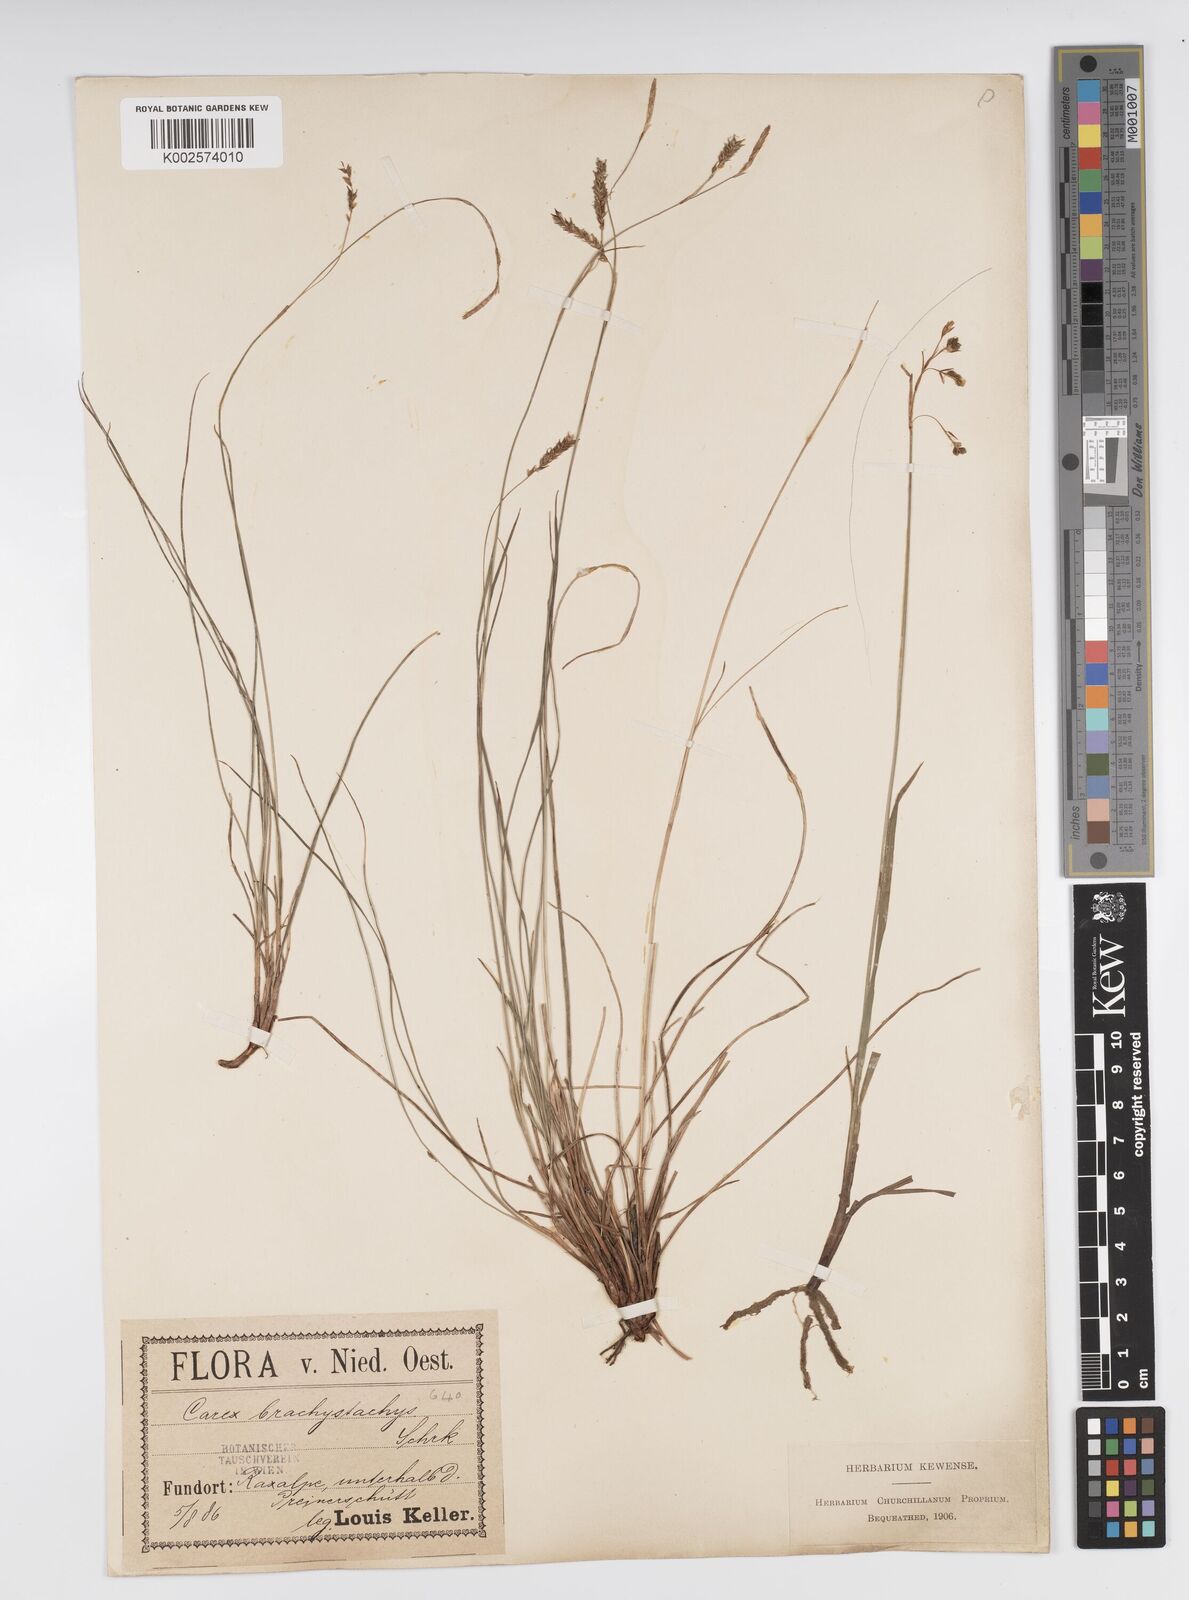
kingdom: Plantae
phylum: Tracheophyta
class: Liliopsida
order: Poales
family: Cyperaceae
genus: Carex
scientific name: Carex brachystachys
